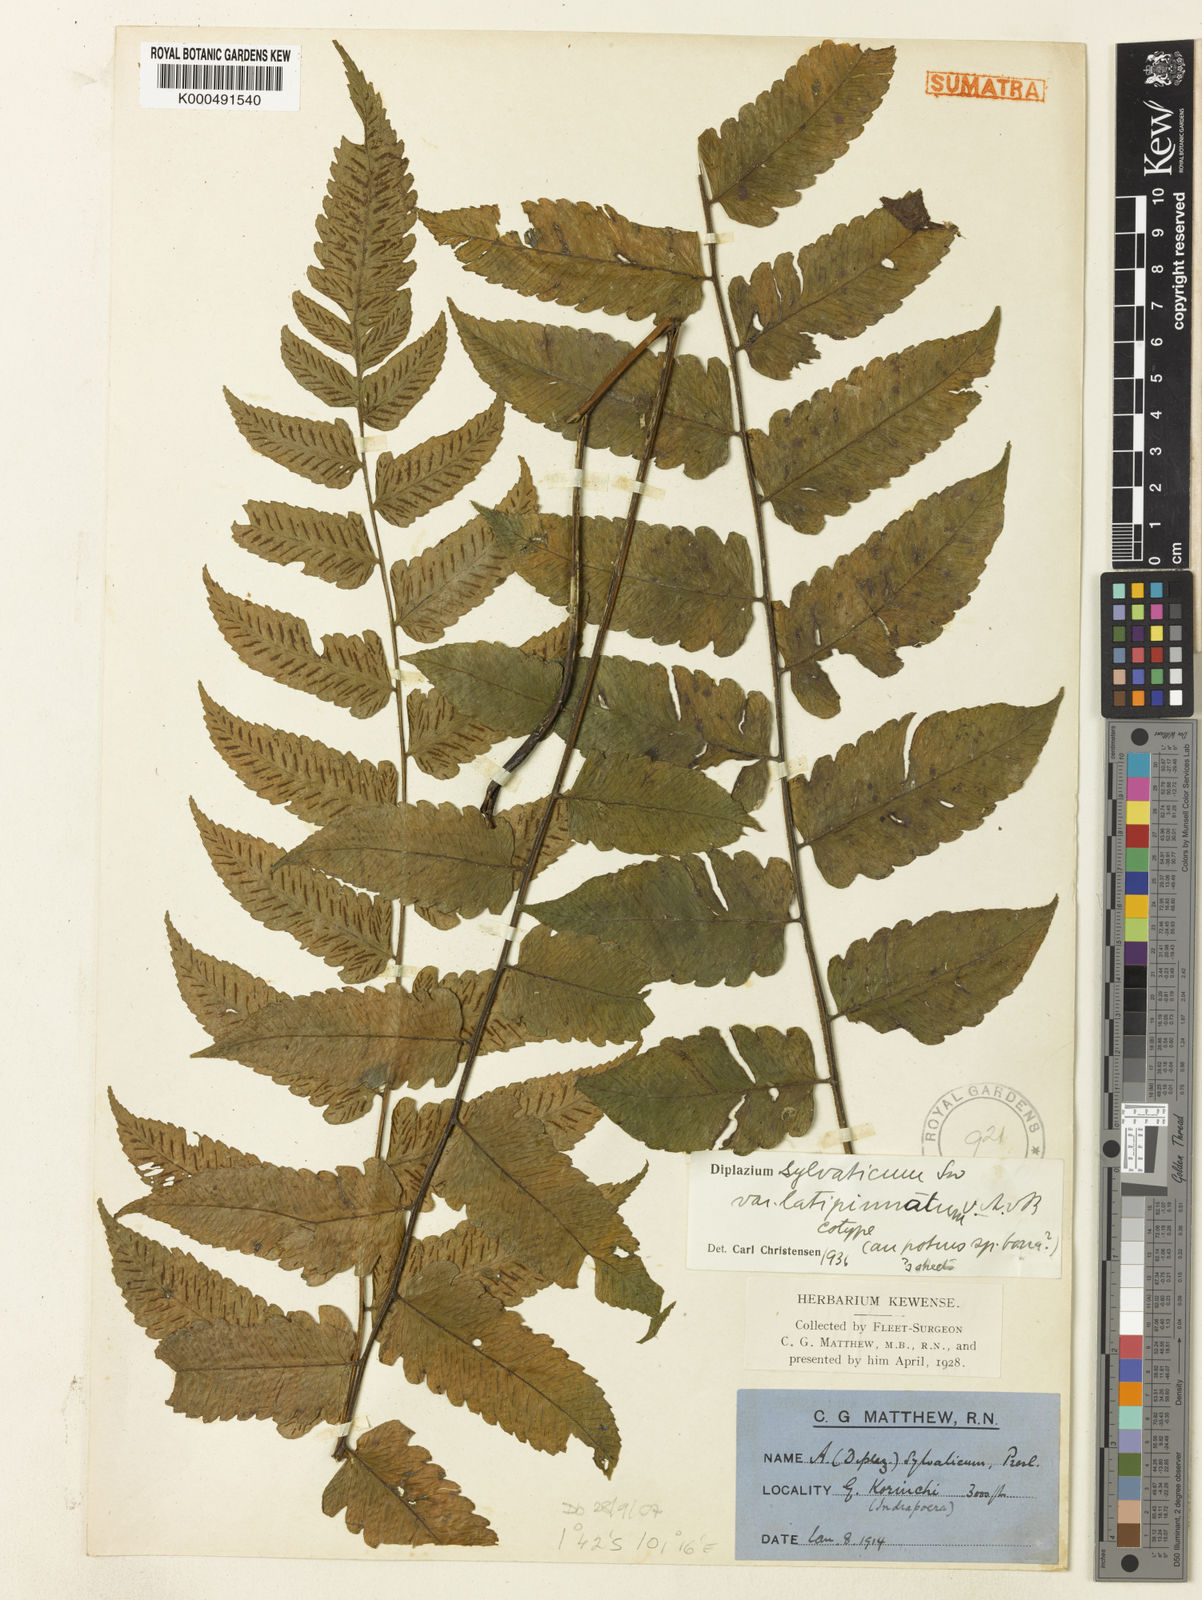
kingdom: Plantae
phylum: Tracheophyta
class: Polypodiopsida
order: Polypodiales
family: Athyriaceae
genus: Diplazium
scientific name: Diplazium sylvaticum
